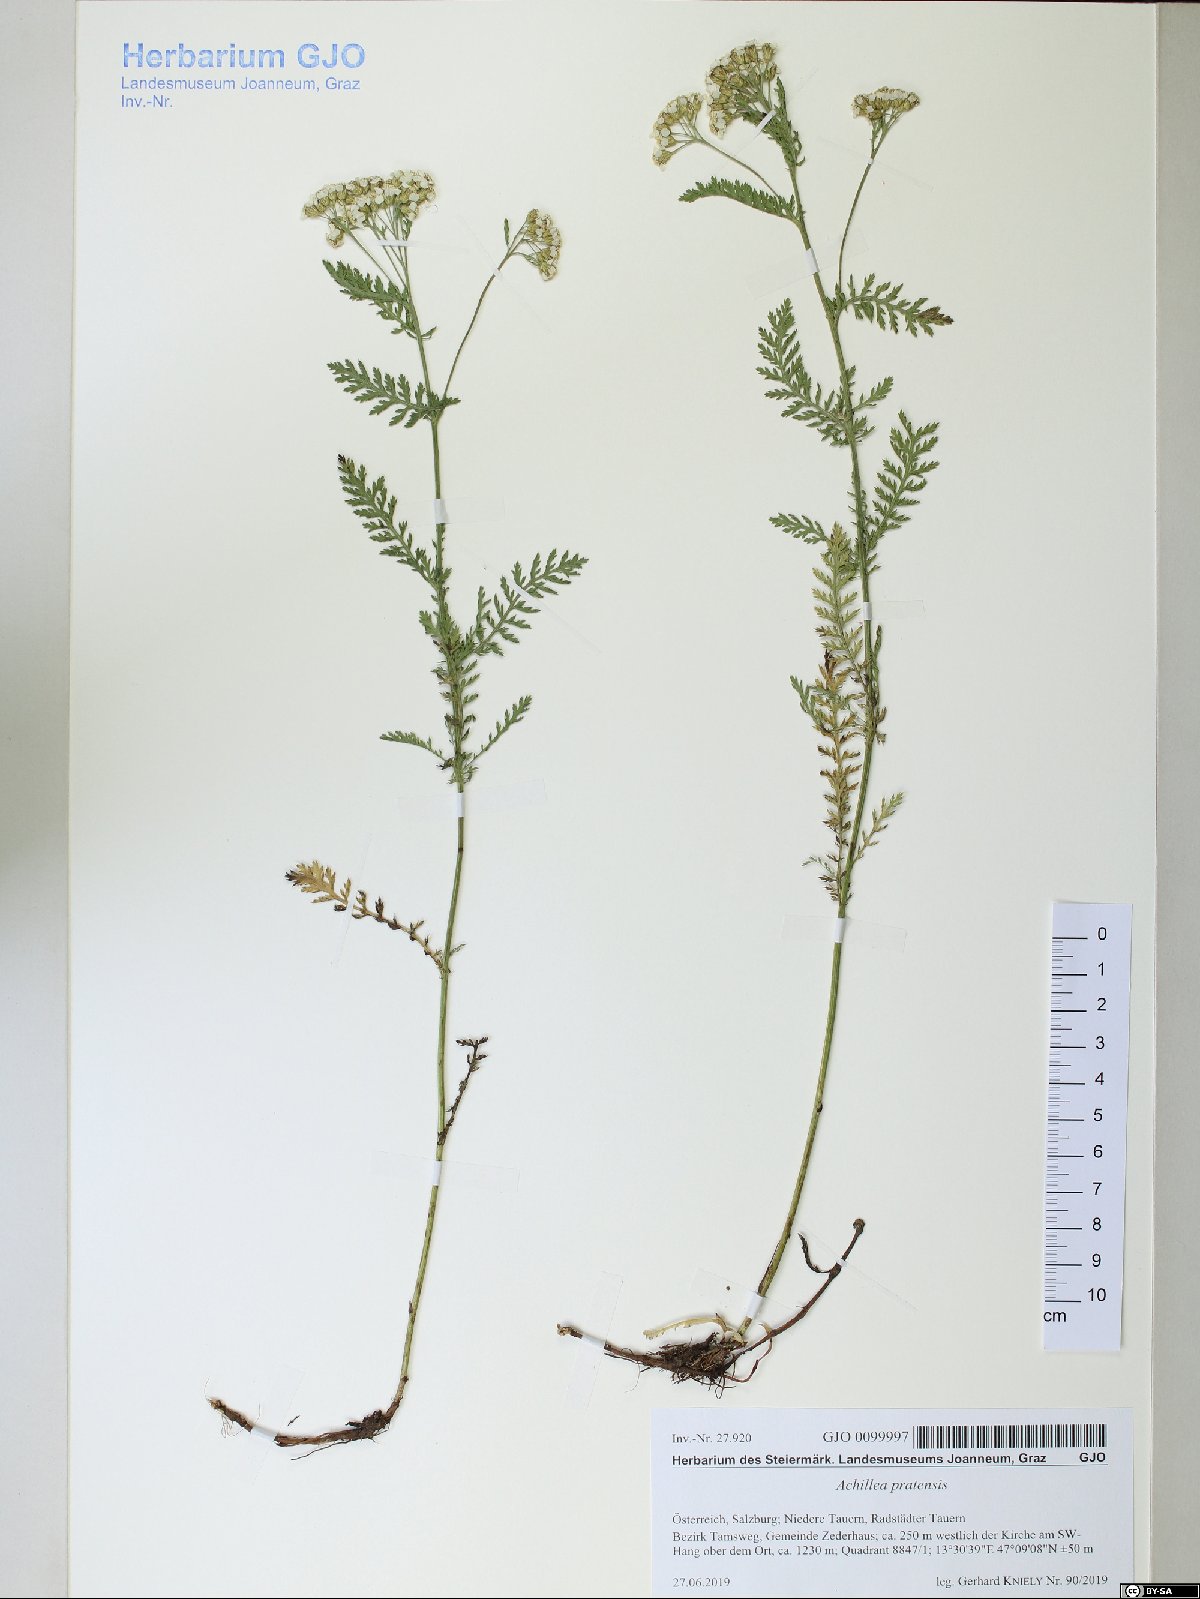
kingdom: Plantae
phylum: Tracheophyta
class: Magnoliopsida
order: Asterales
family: Asteraceae
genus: Achillea
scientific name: Achillea pratensis
